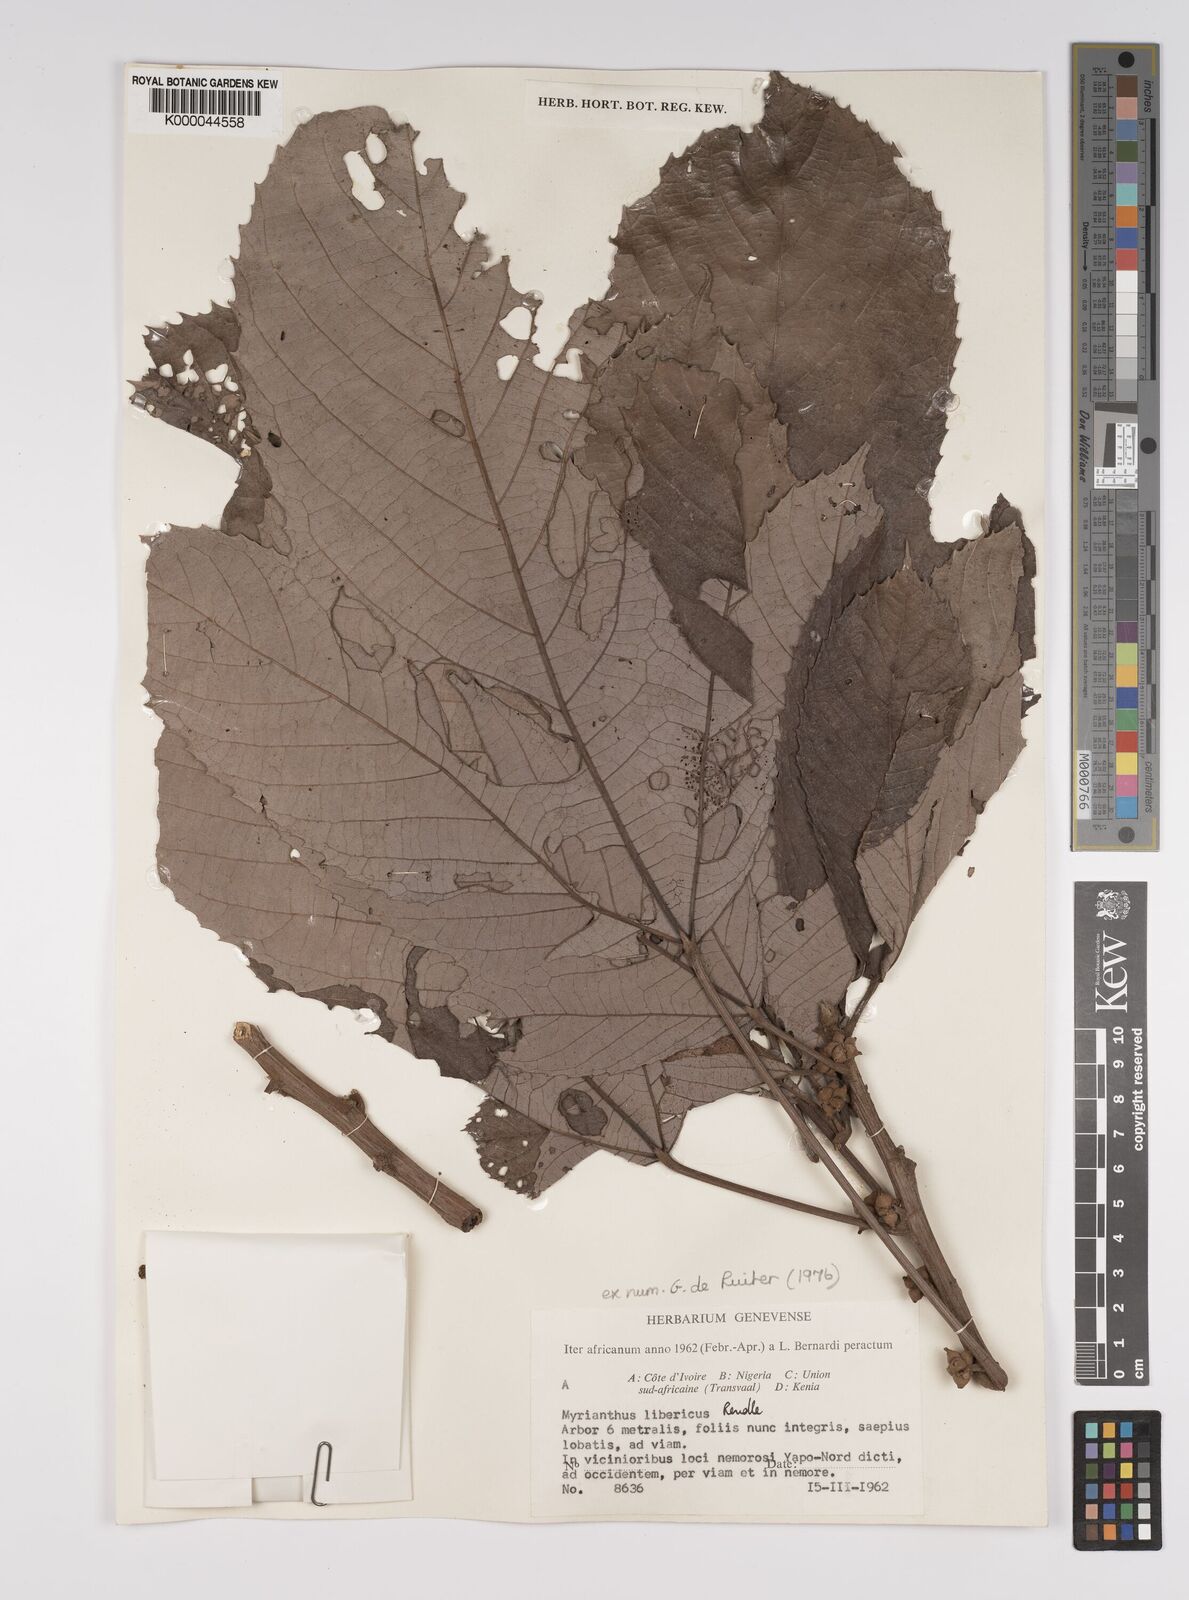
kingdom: Plantae
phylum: Tracheophyta
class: Magnoliopsida
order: Rosales
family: Urticaceae
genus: Myrianthus
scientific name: Myrianthus libericus
